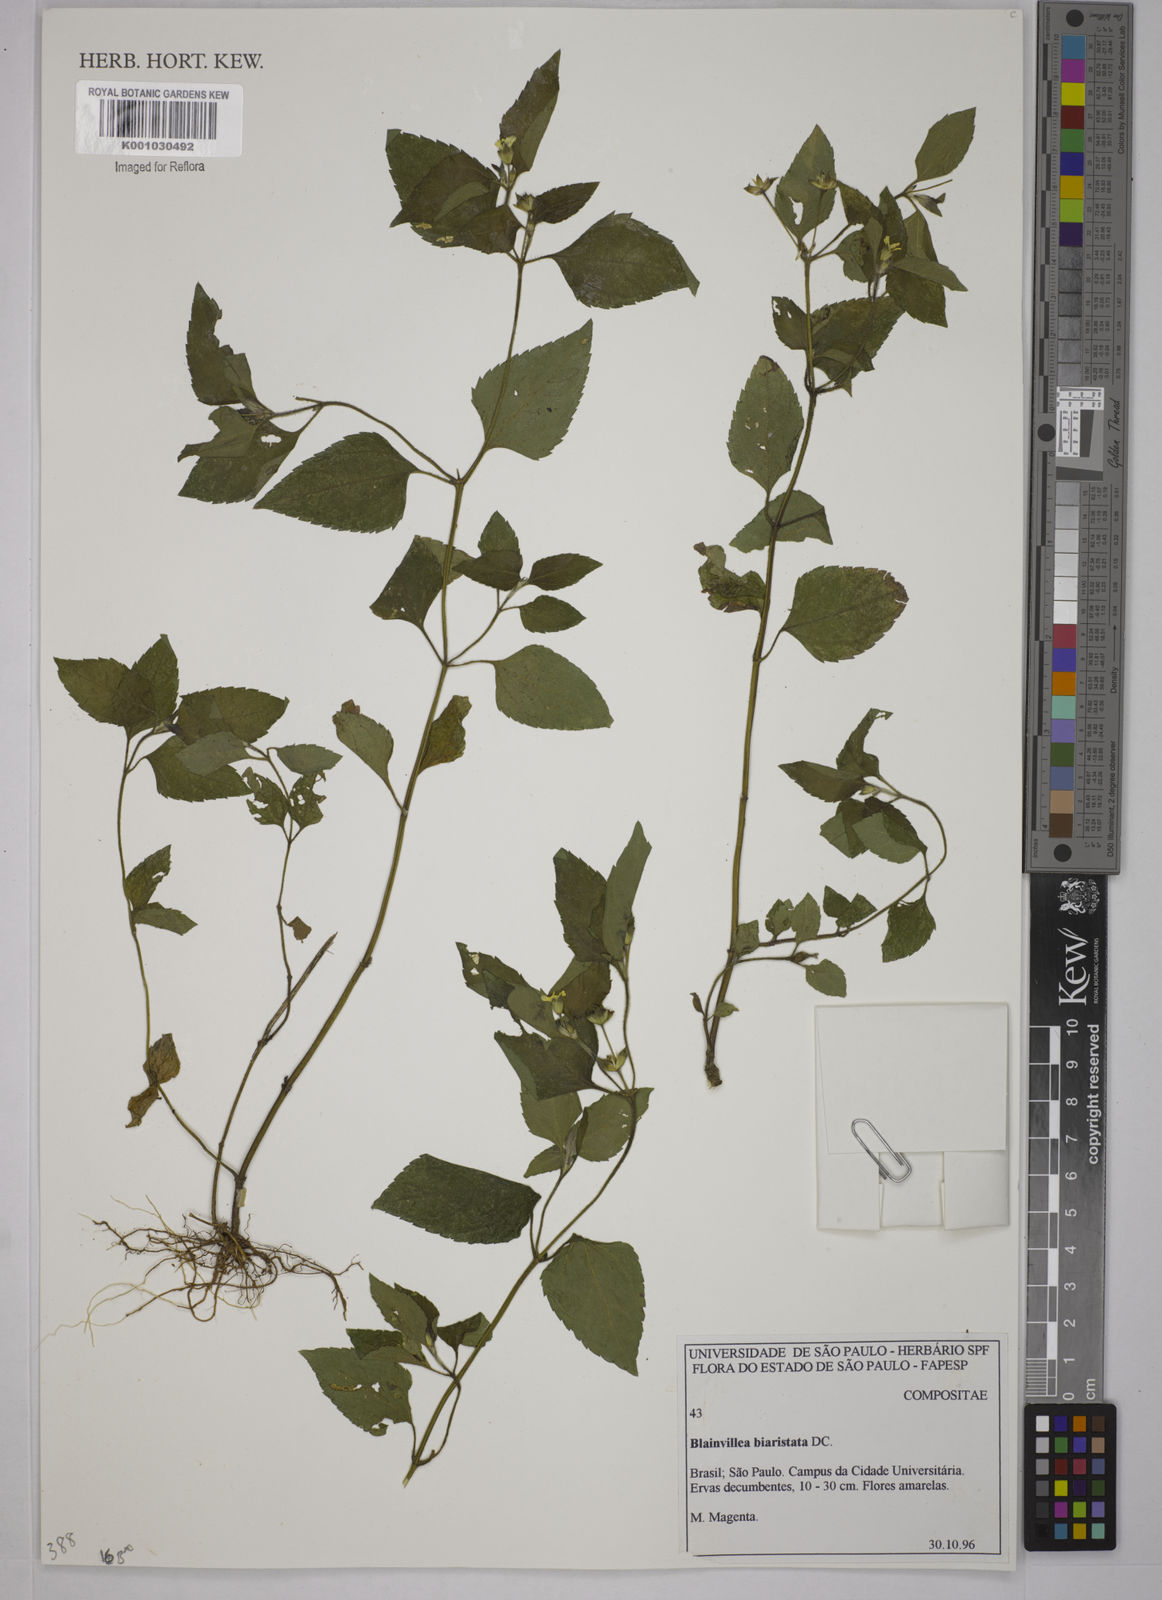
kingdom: Plantae
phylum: Tracheophyta
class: Magnoliopsida
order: Asterales
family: Asteraceae
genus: Blainvillea
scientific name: Blainvillea
